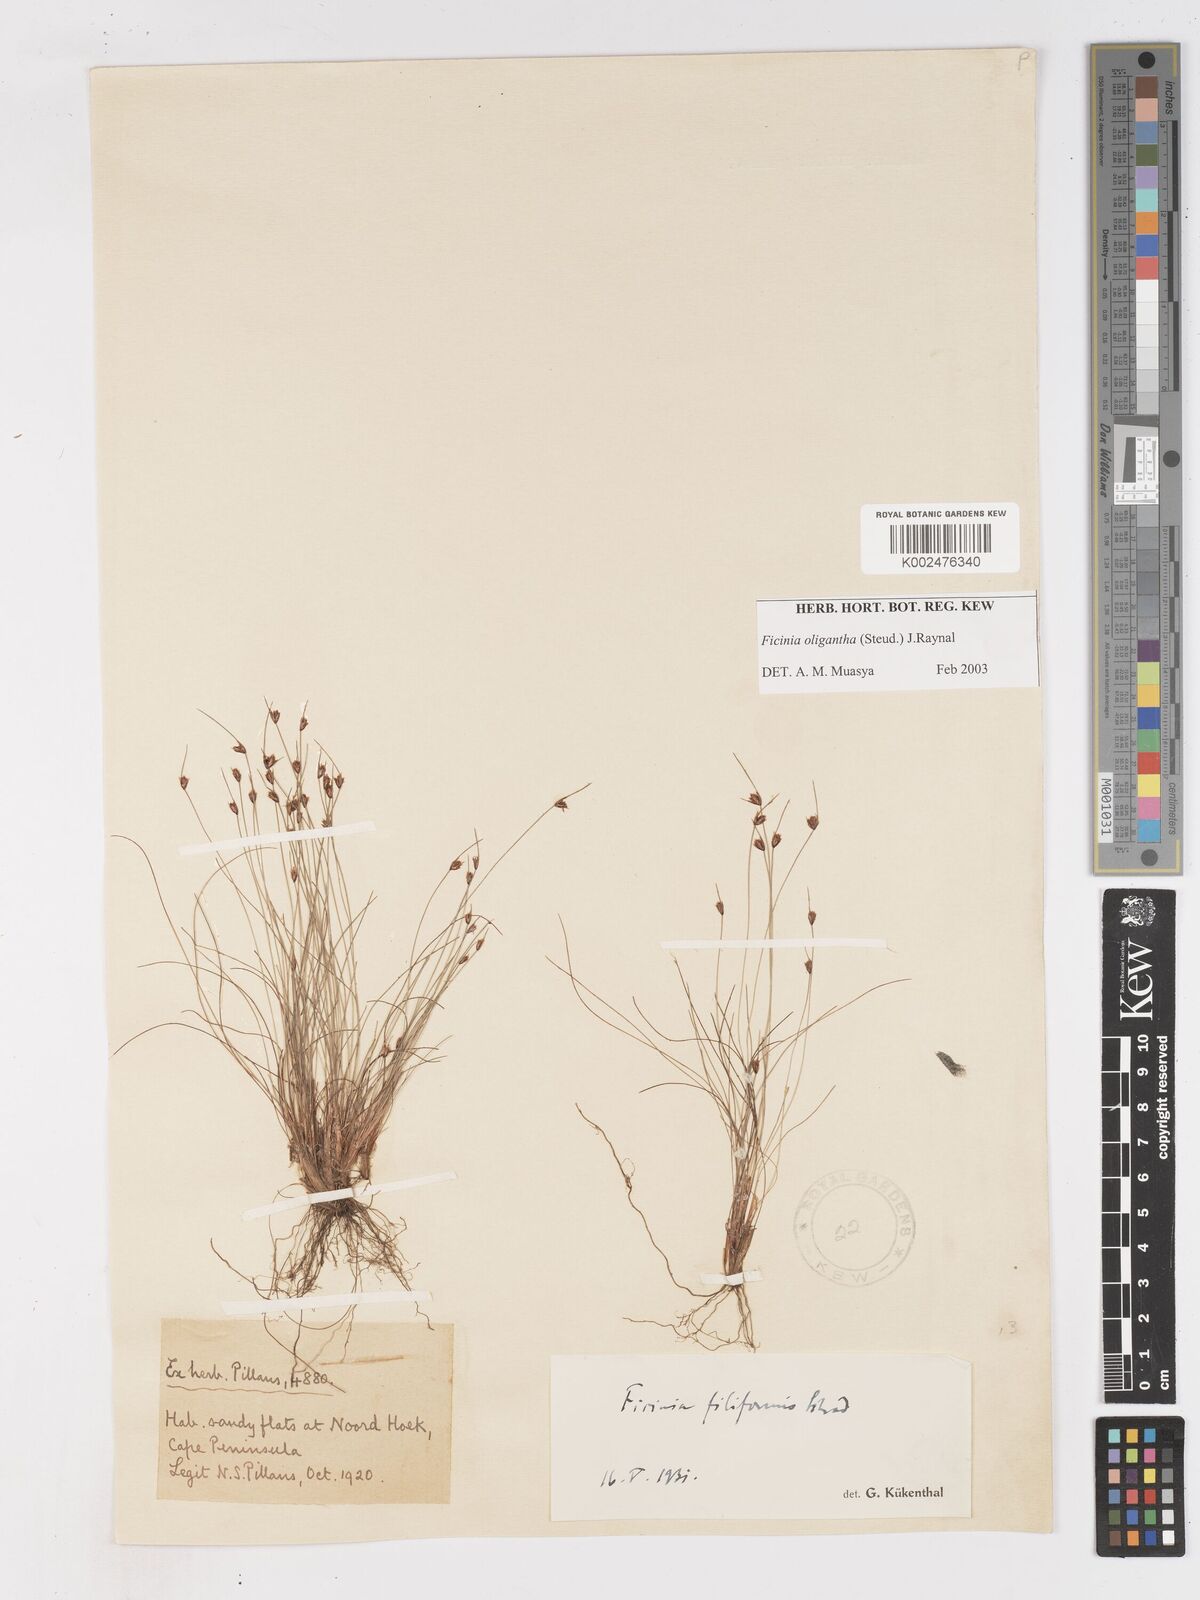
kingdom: Plantae
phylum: Tracheophyta
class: Liliopsida
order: Poales
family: Cyperaceae
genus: Ficinia
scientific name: Ficinia oligantha
